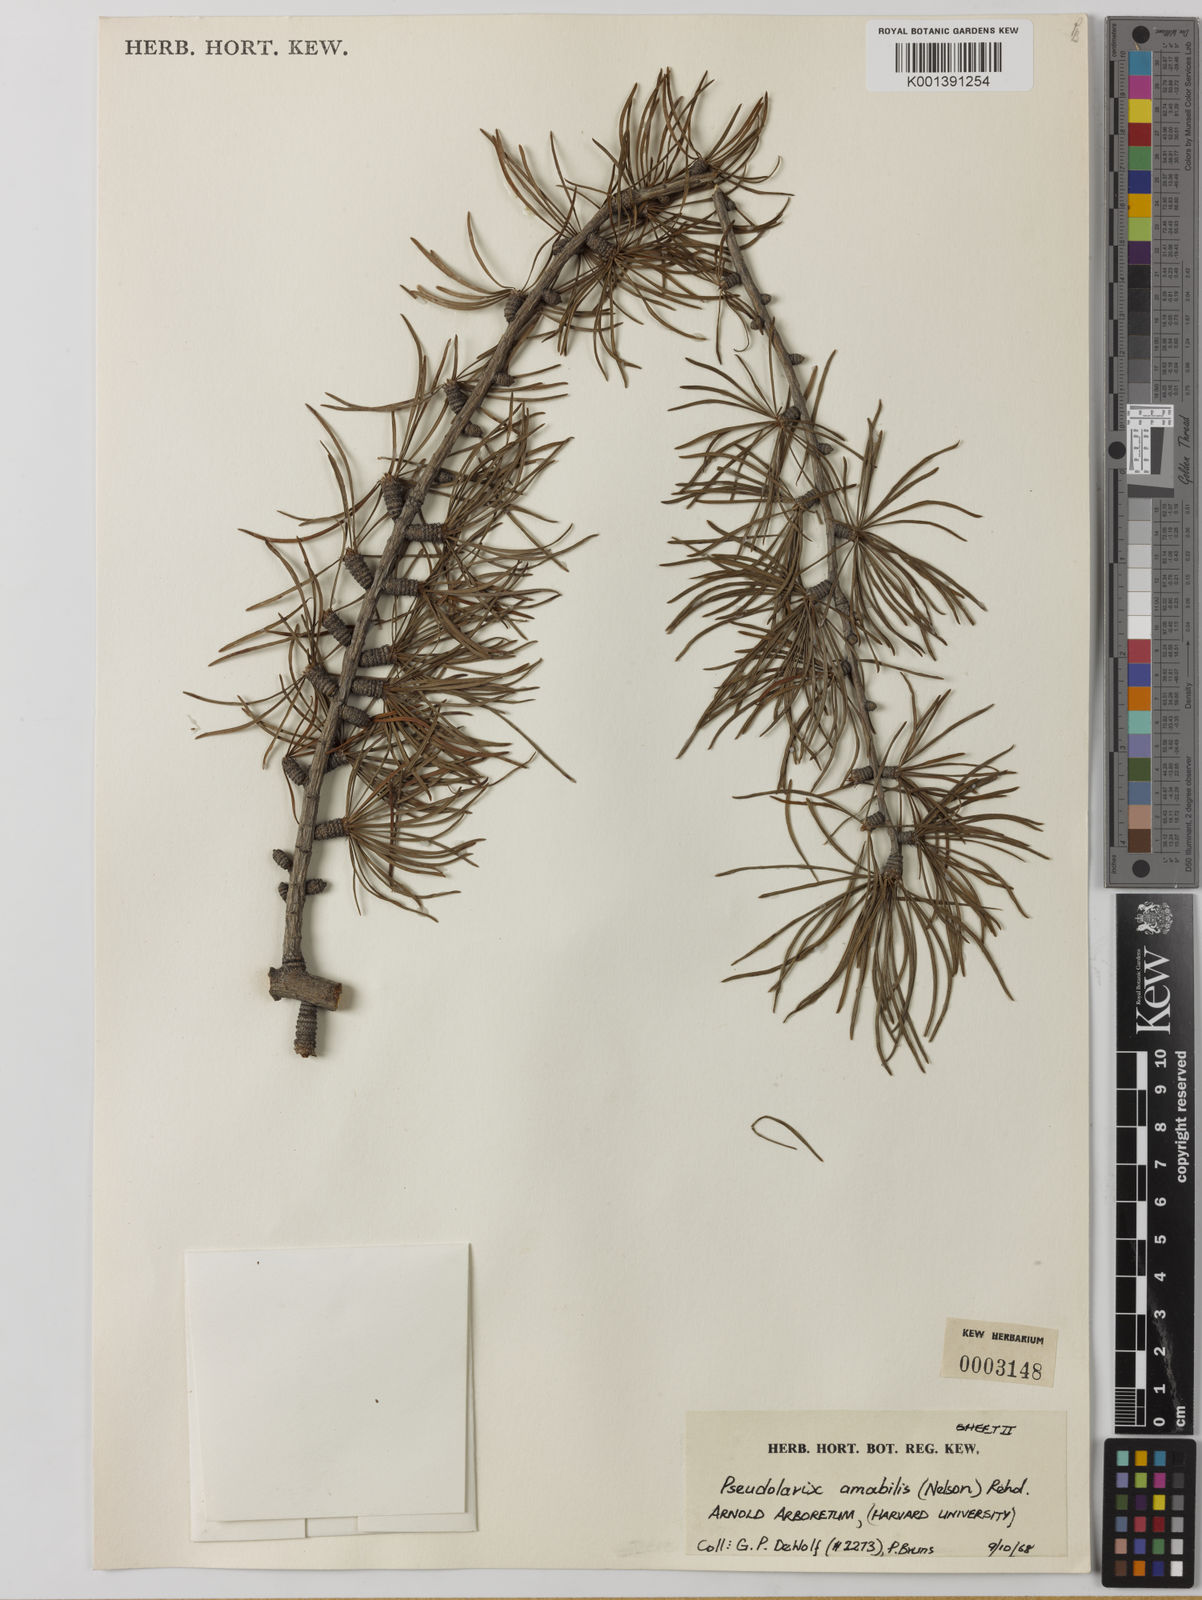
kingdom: Plantae
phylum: Tracheophyta
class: Pinopsida
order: Pinales
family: Pinaceae
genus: Pseudolarix
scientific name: Pseudolarix amabilis
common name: Chinese golden larch
